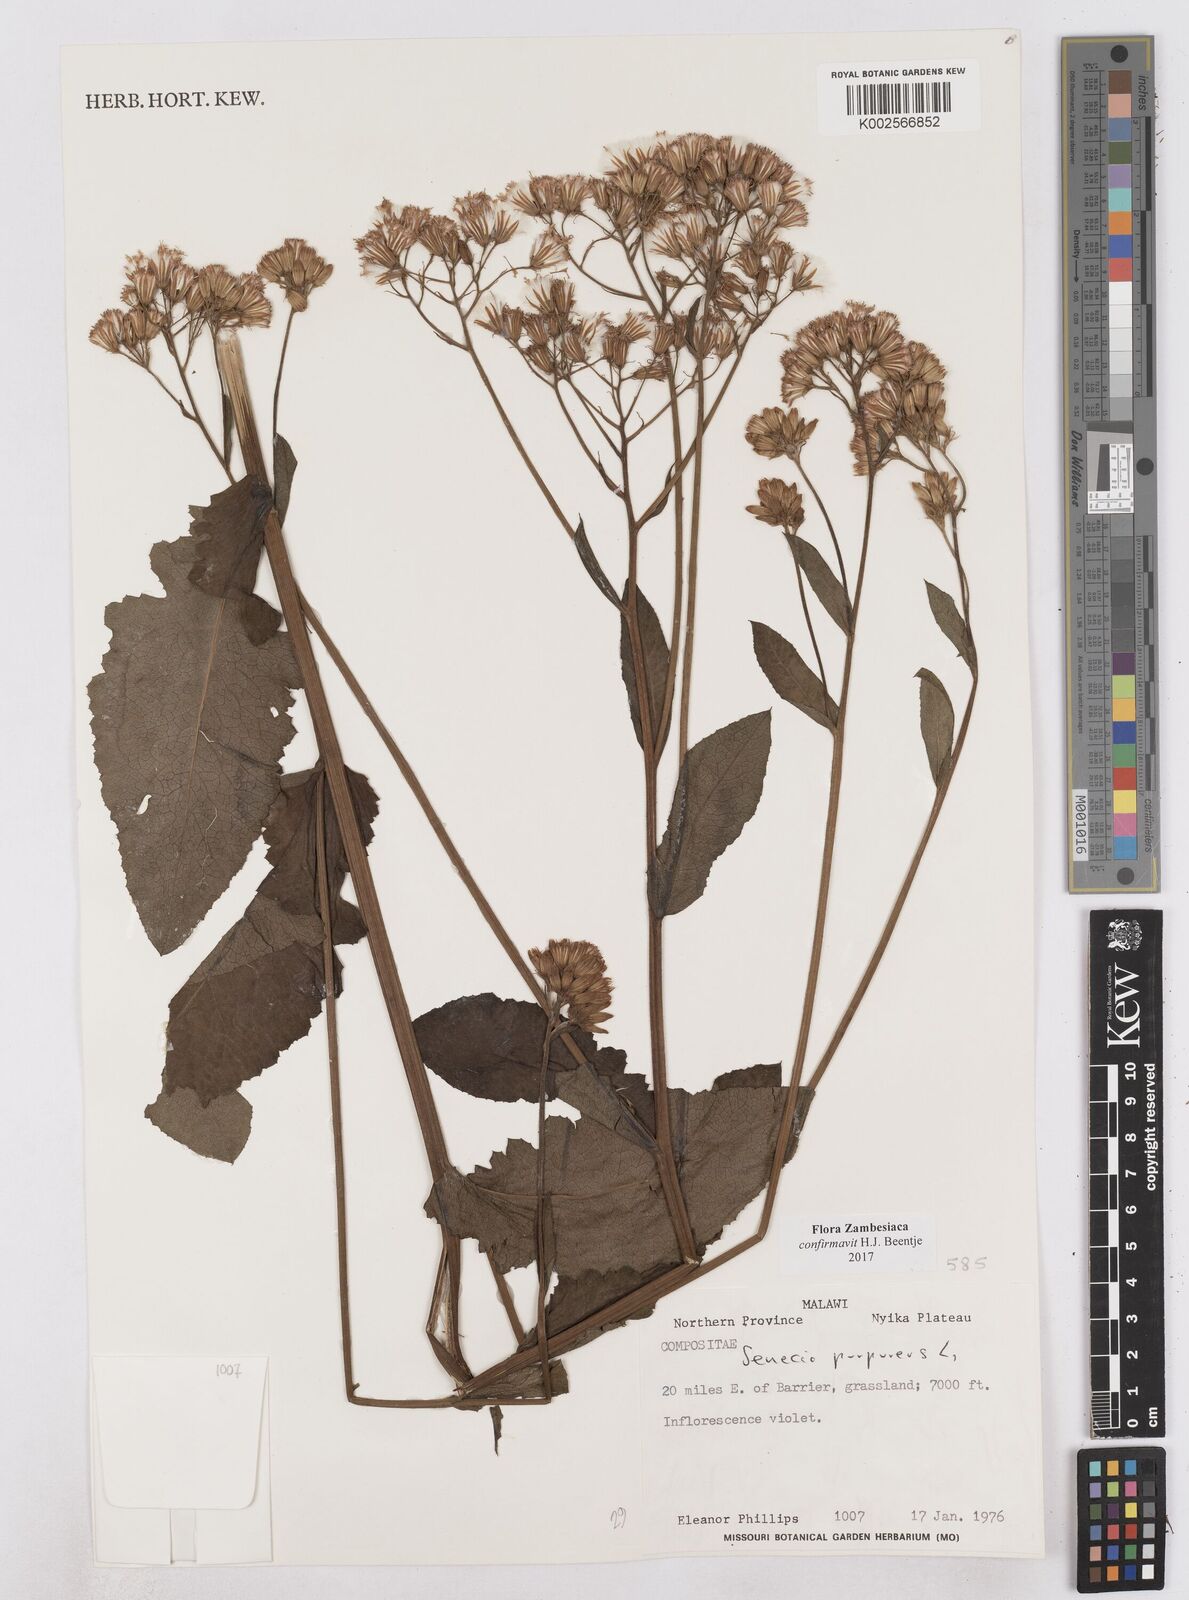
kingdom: Plantae
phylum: Tracheophyta
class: Magnoliopsida
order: Asterales
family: Asteraceae
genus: Senecio
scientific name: Senecio purpureus
